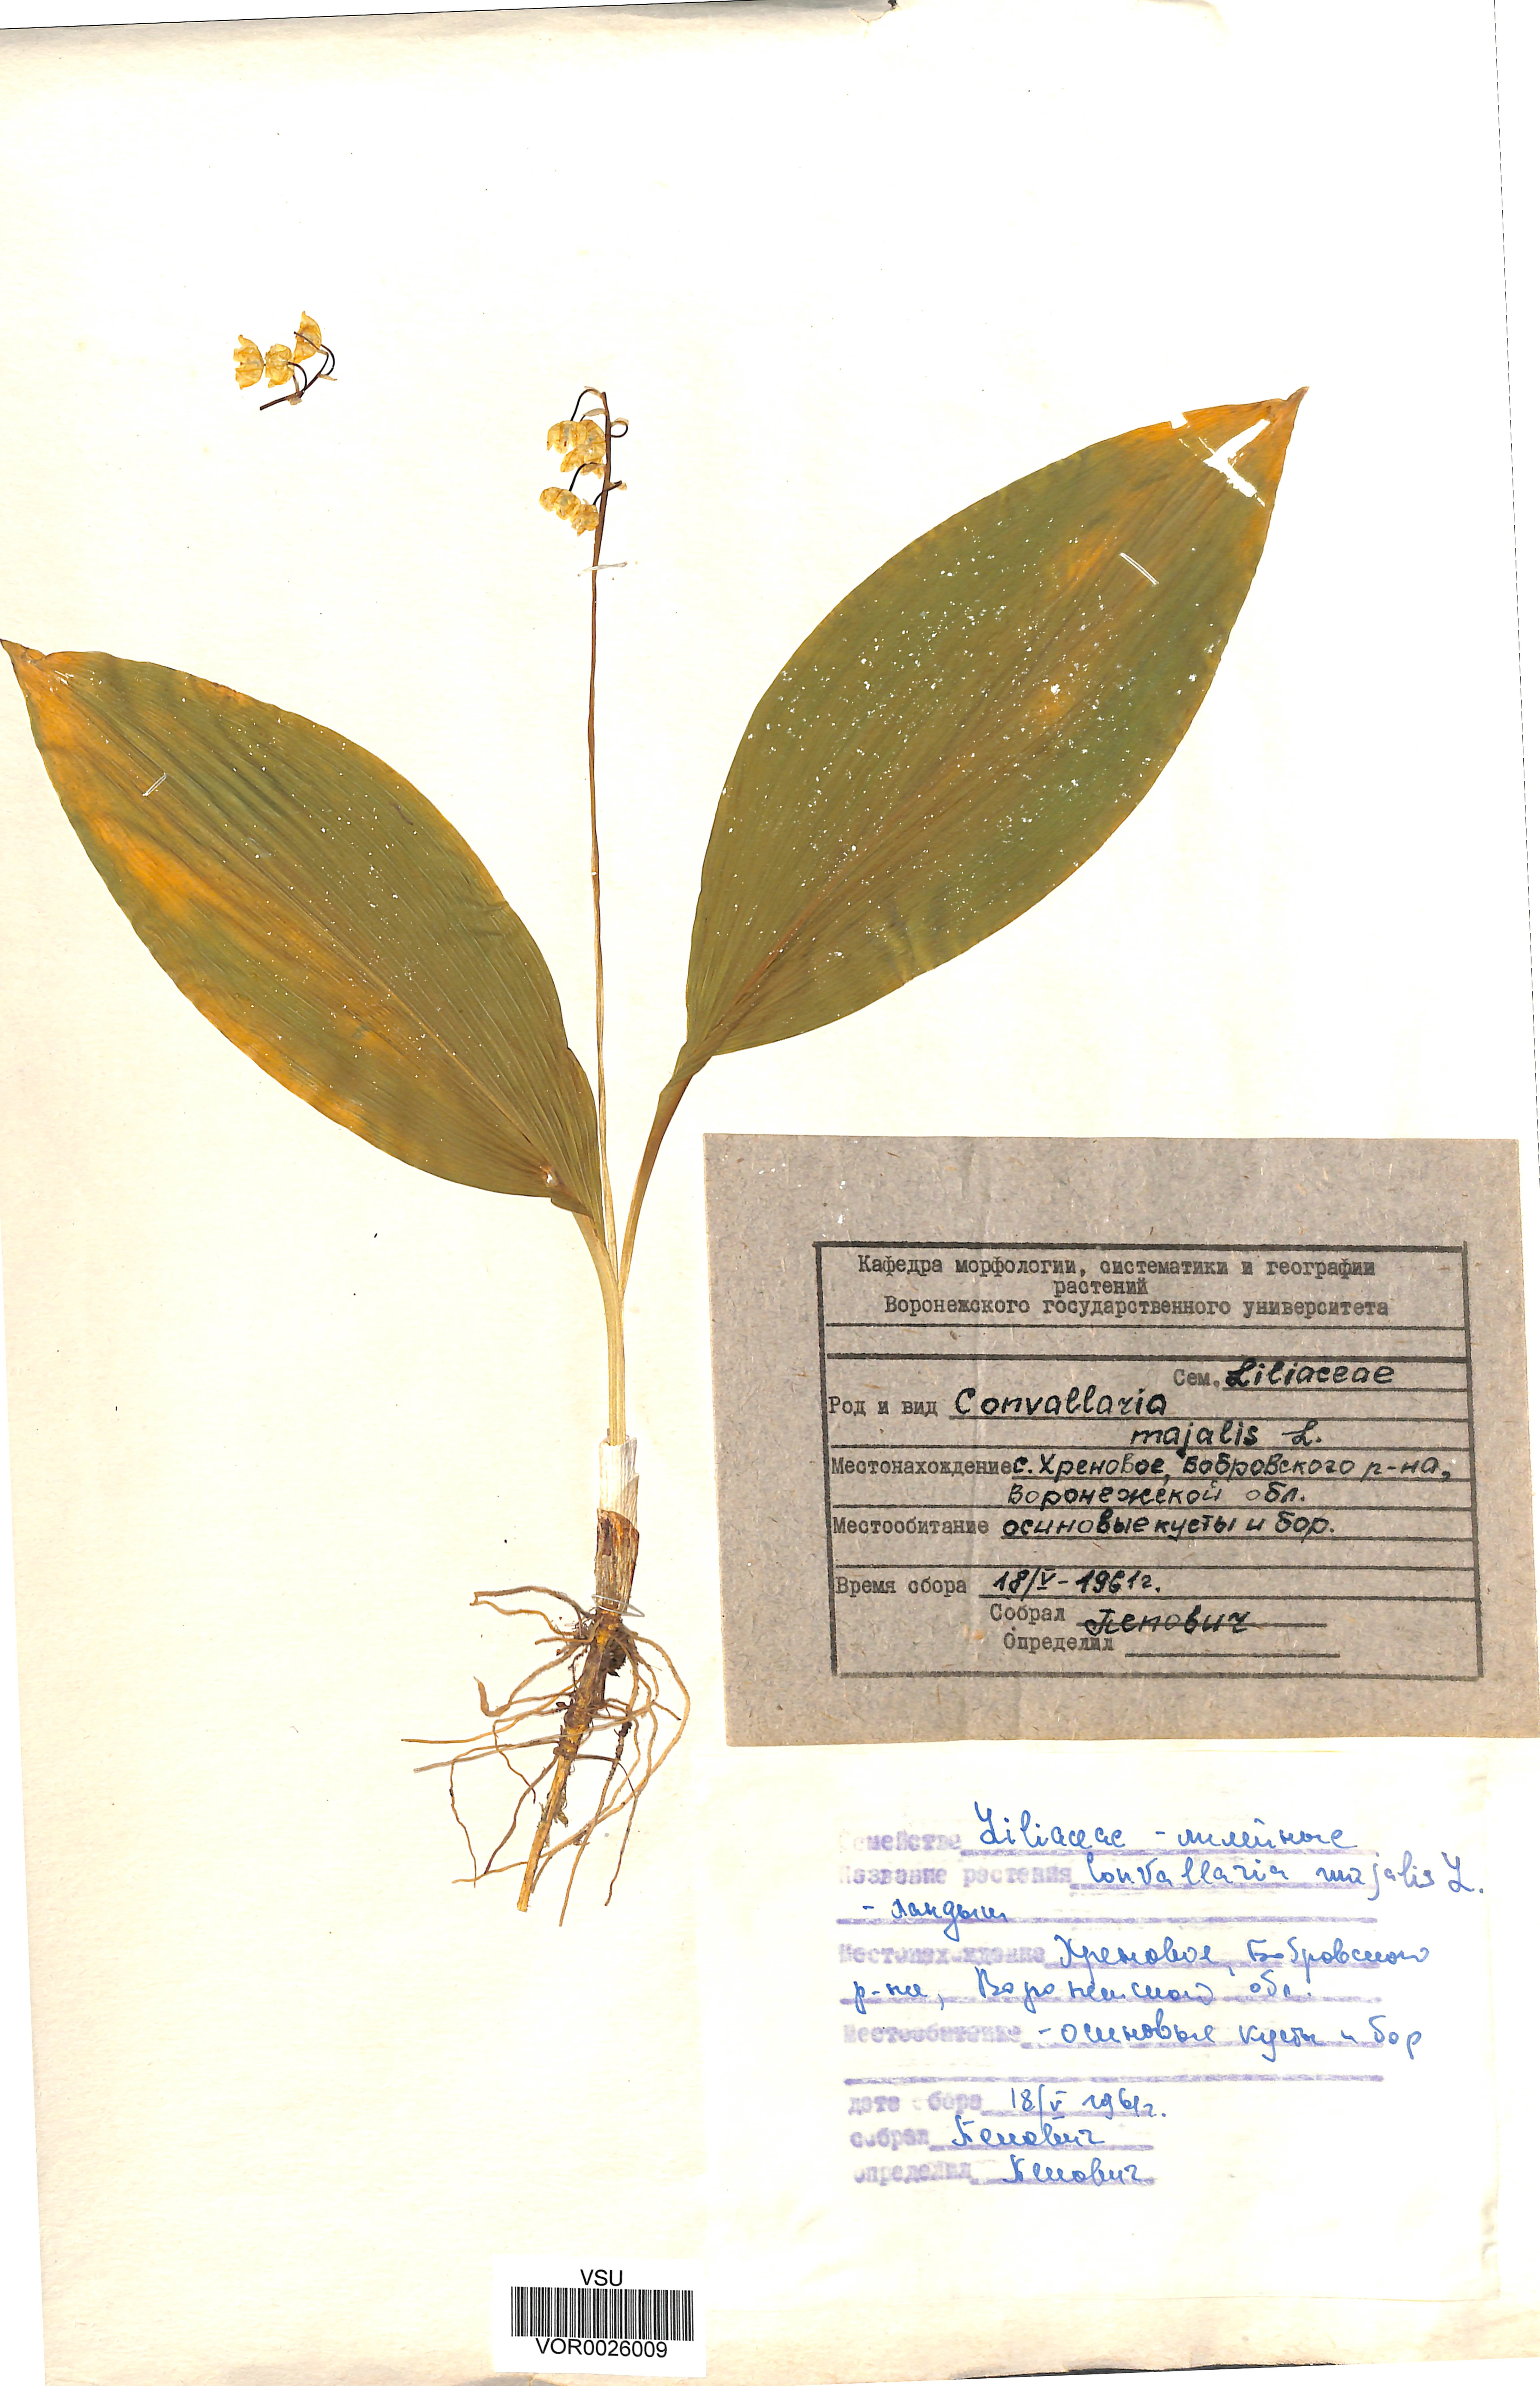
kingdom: Plantae
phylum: Tracheophyta
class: Liliopsida
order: Asparagales
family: Asparagaceae
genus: Convallaria
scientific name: Convallaria majalis
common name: Lily-of-the-valley
